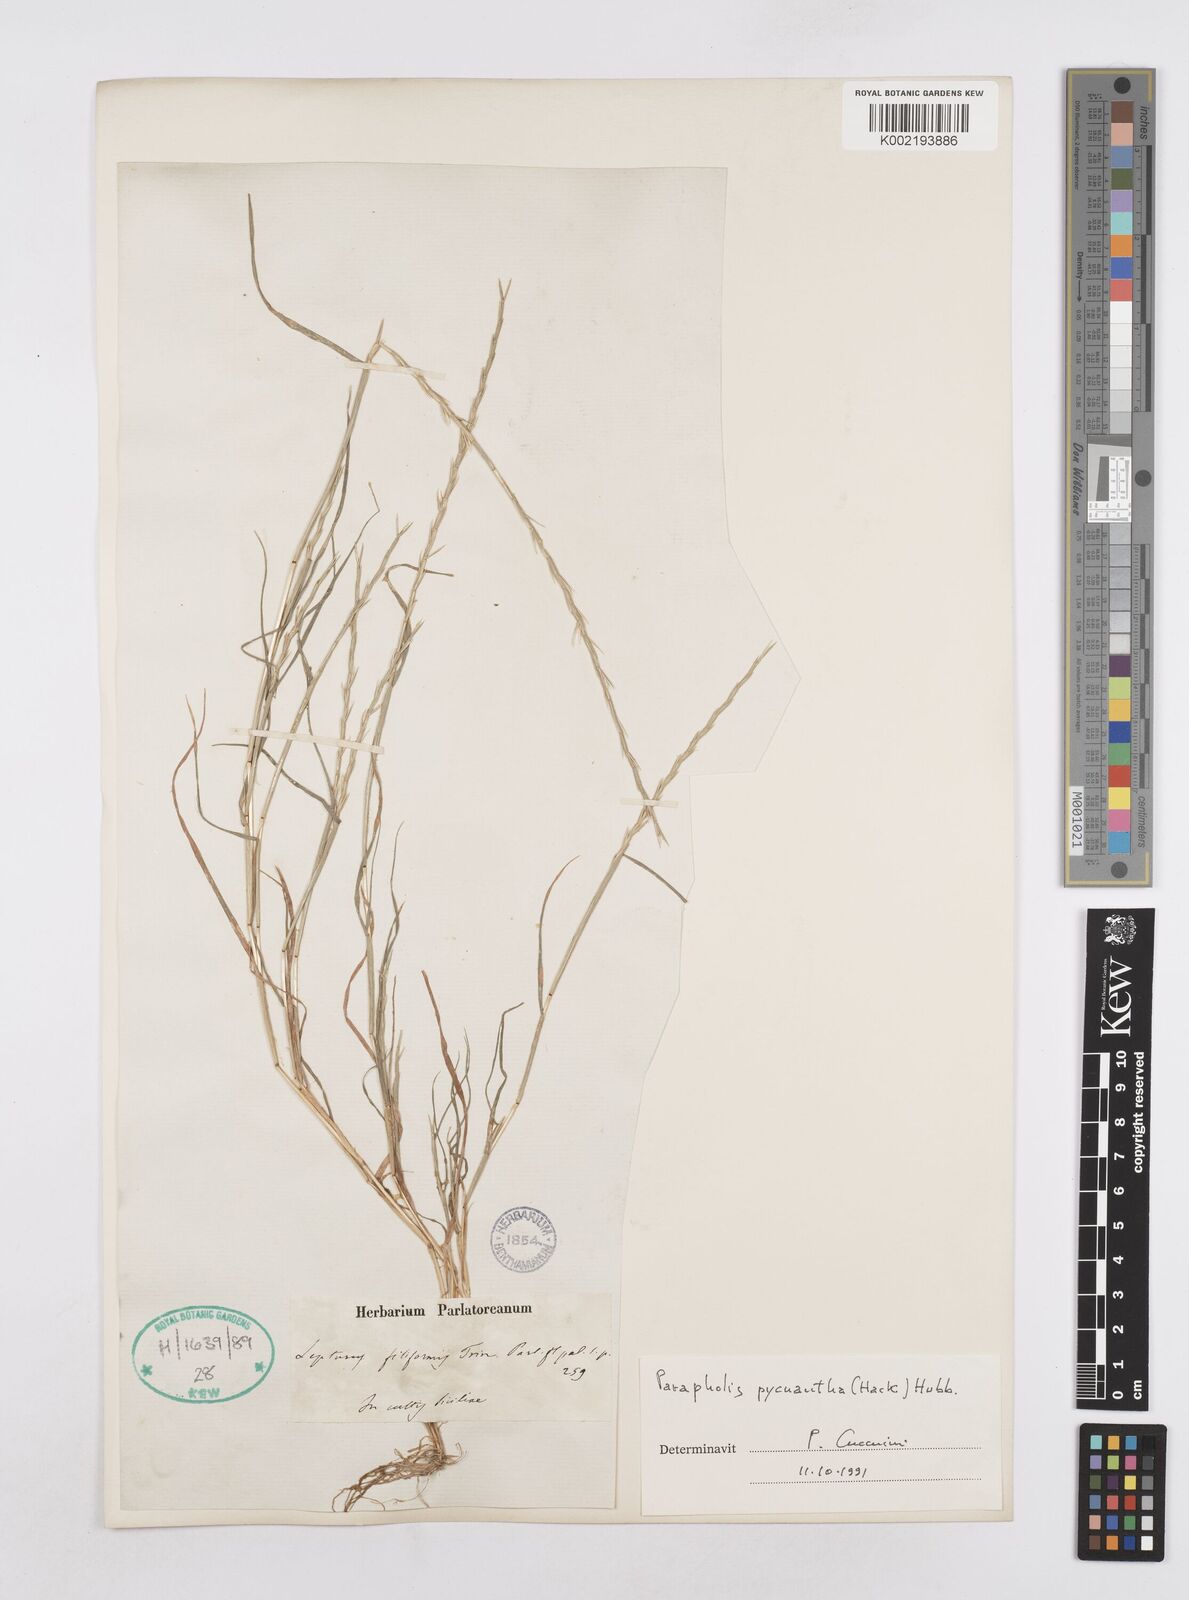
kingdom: Plantae
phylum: Tracheophyta
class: Liliopsida
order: Poales
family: Poaceae
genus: Parapholis
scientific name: Parapholis pycnantha
